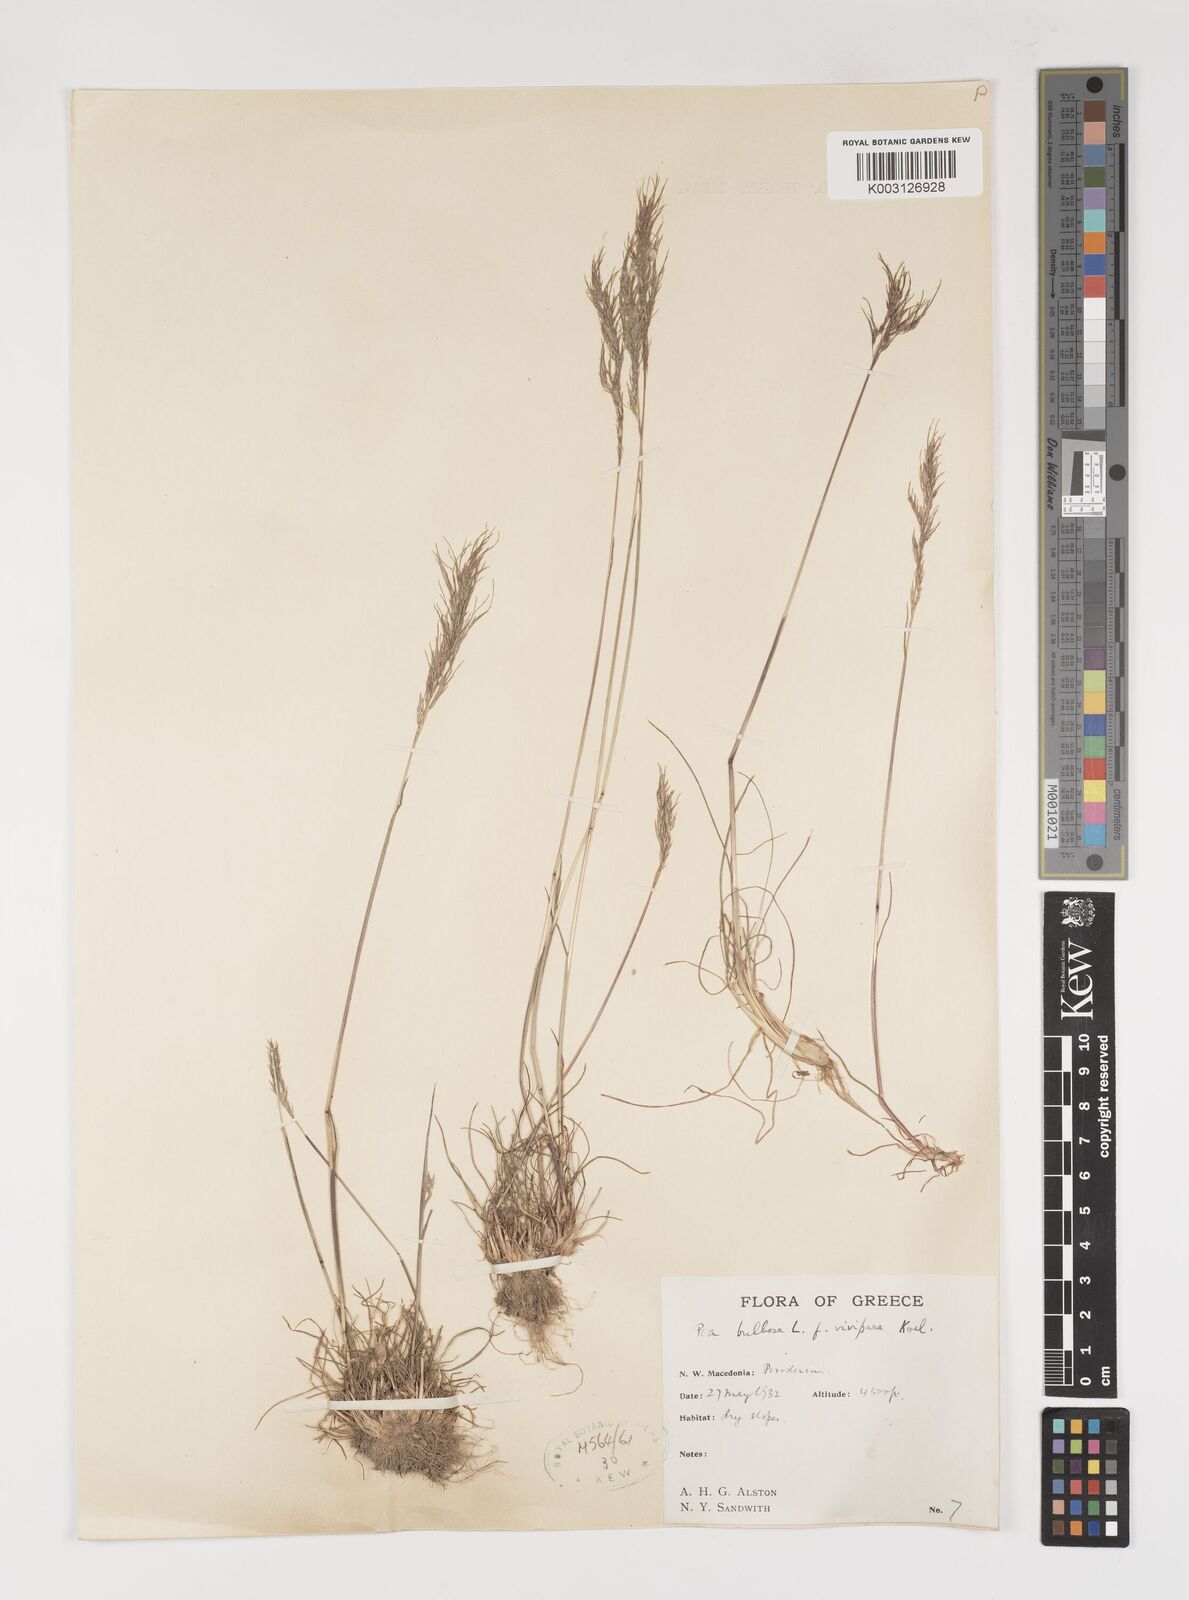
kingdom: Plantae
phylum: Tracheophyta
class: Liliopsida
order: Poales
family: Poaceae
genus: Poa
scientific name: Poa bulbosa
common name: Bulbous bluegrass
